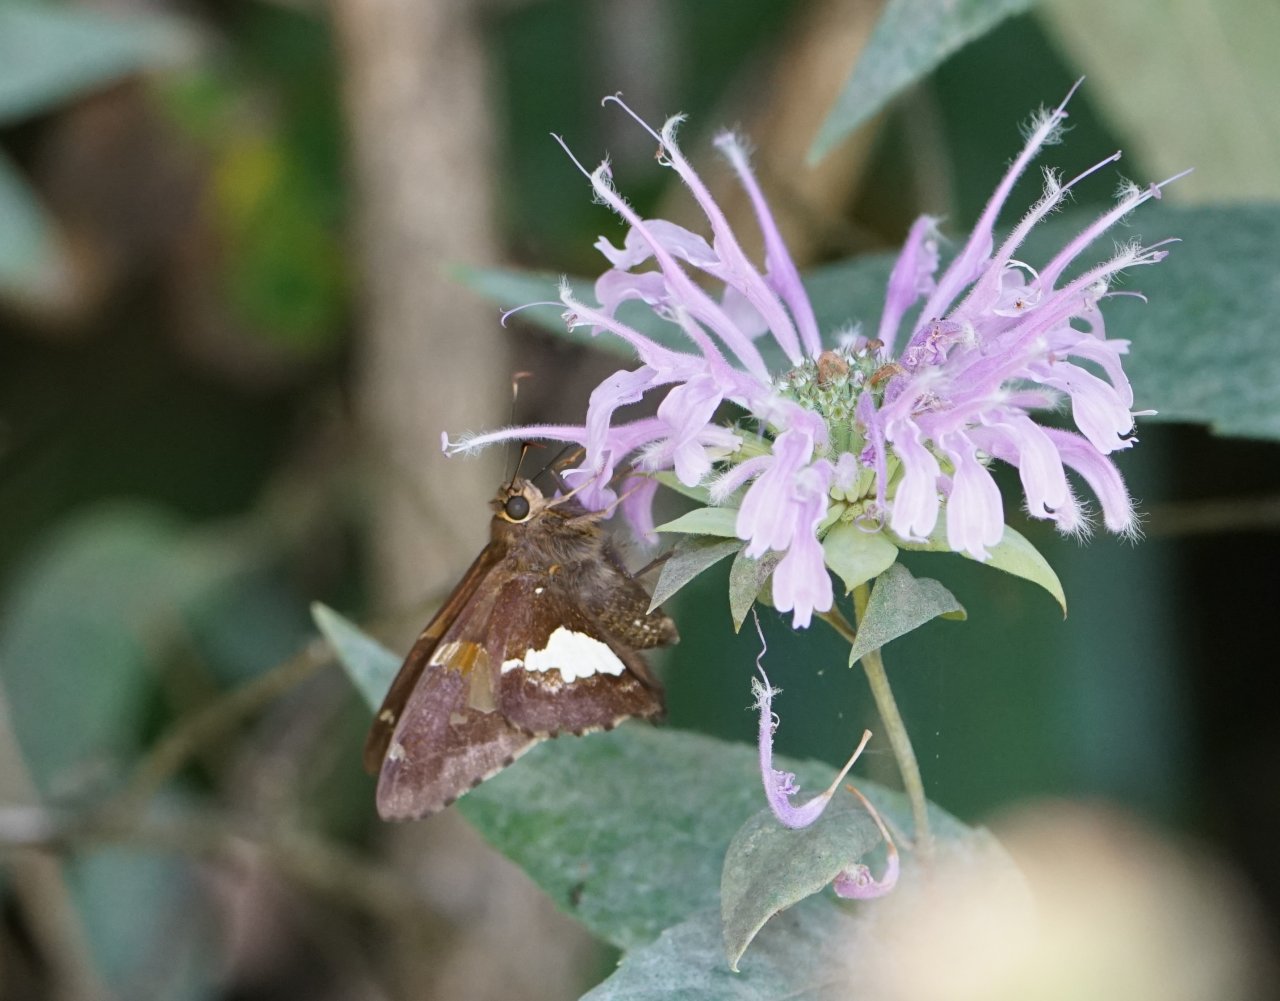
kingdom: Animalia
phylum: Arthropoda
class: Insecta
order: Lepidoptera
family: Hesperiidae
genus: Epargyreus
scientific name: Epargyreus clarus
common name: Silver-spotted Skipper
